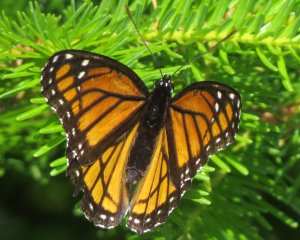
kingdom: Animalia
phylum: Arthropoda
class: Insecta
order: Lepidoptera
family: Nymphalidae
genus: Limenitis
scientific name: Limenitis archippus
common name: Viceroy
